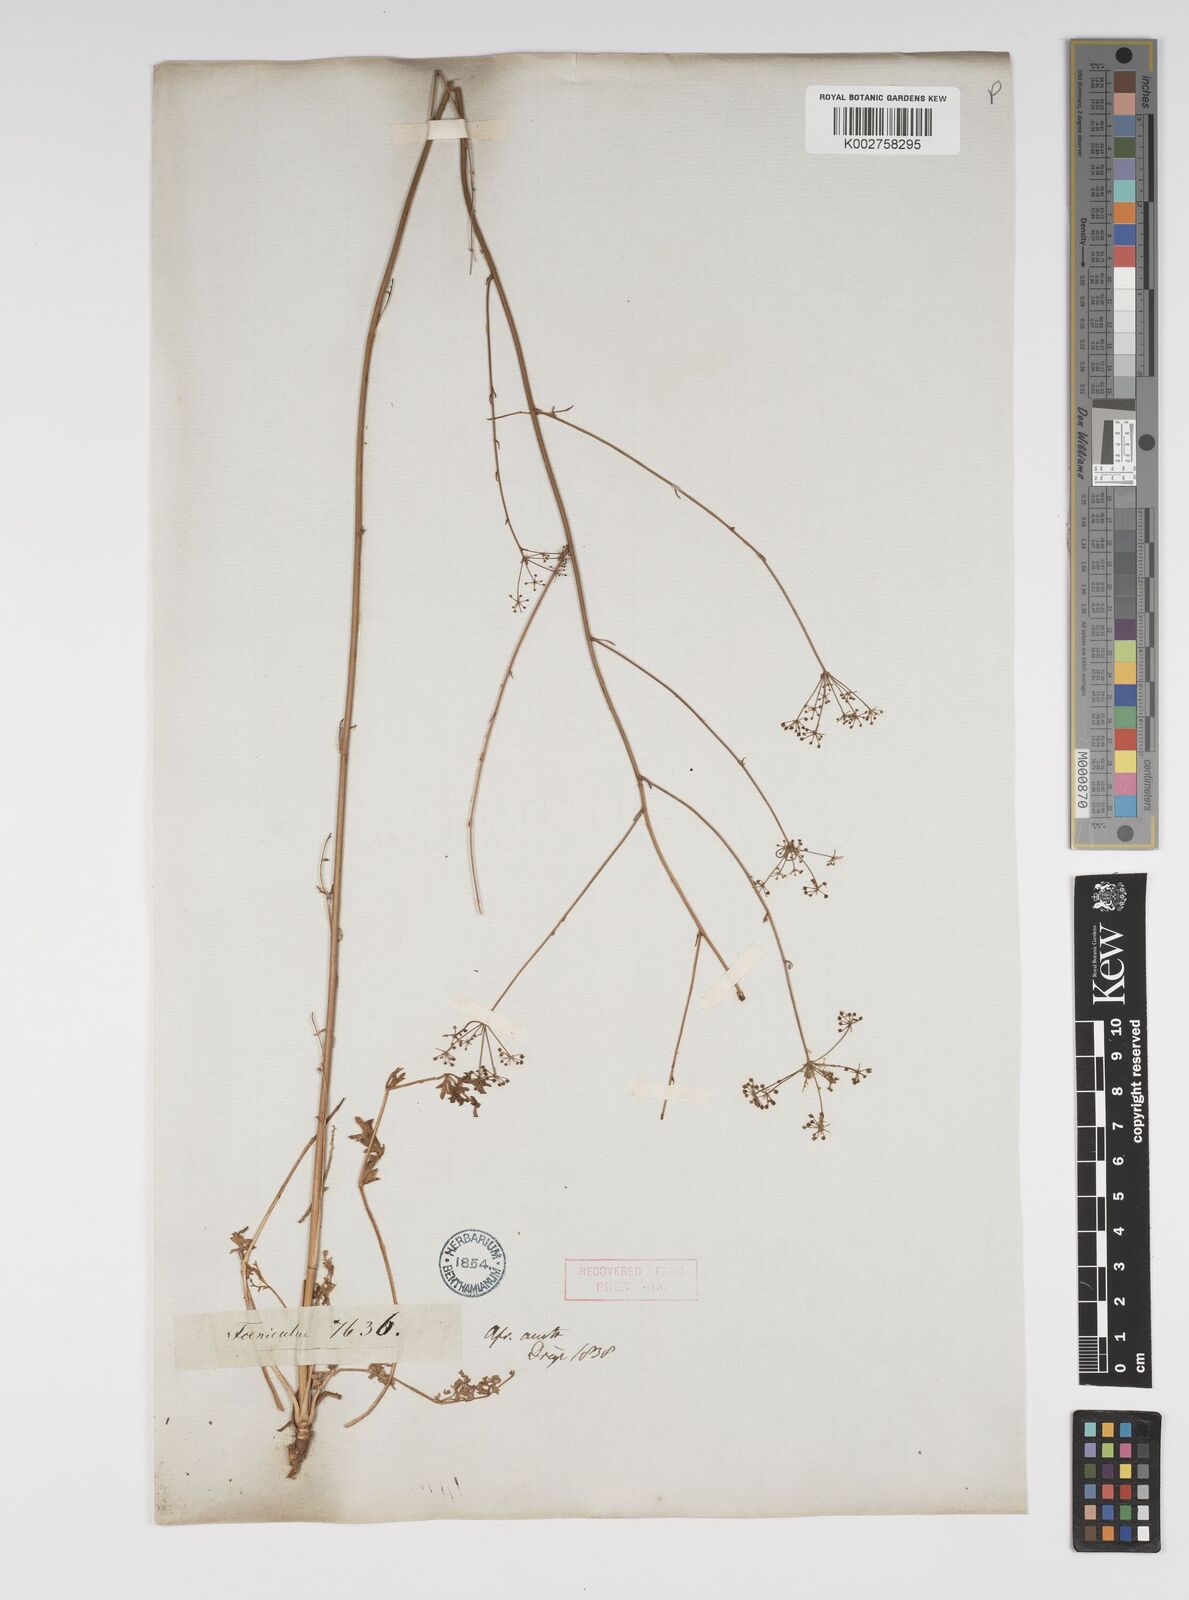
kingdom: Plantae
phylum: Tracheophyta
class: Magnoliopsida
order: Apiales
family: Apiaceae
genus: Foeniculum
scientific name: Foeniculum
